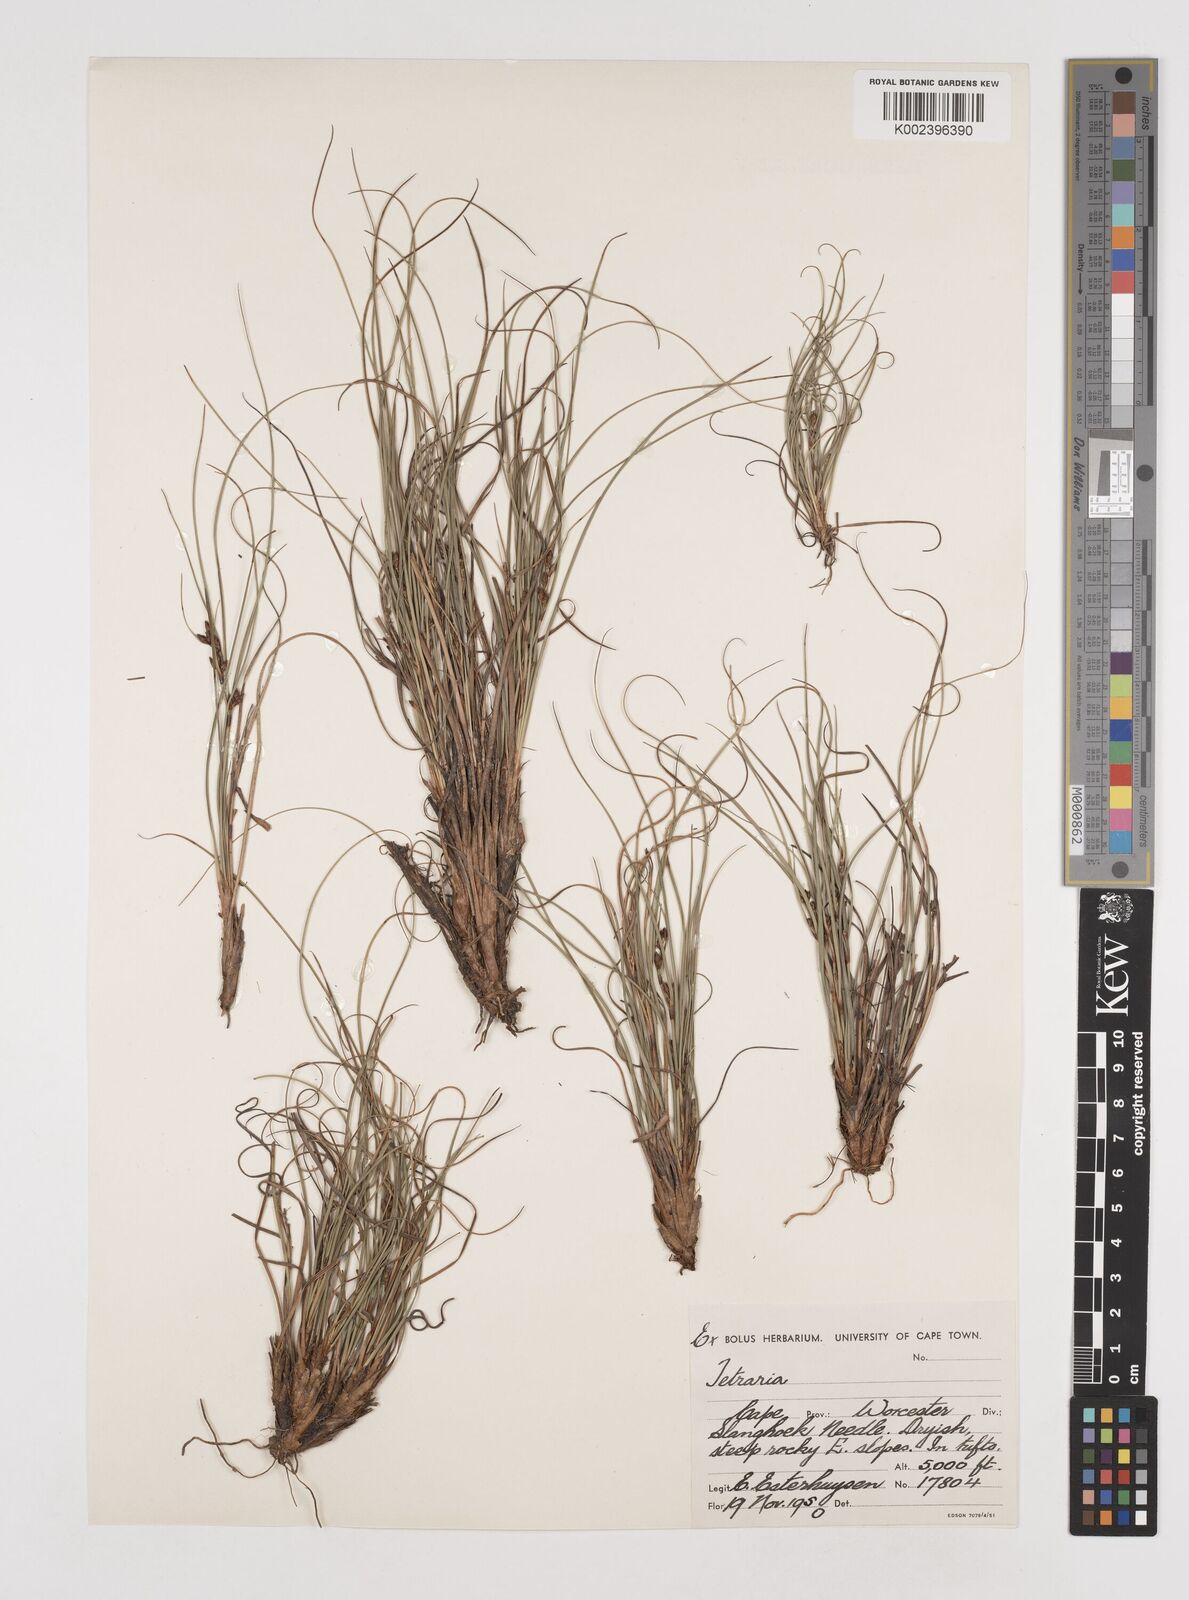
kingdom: Plantae
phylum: Tracheophyta
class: Liliopsida
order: Poales
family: Cyperaceae
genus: Tetraria
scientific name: Tetraria
